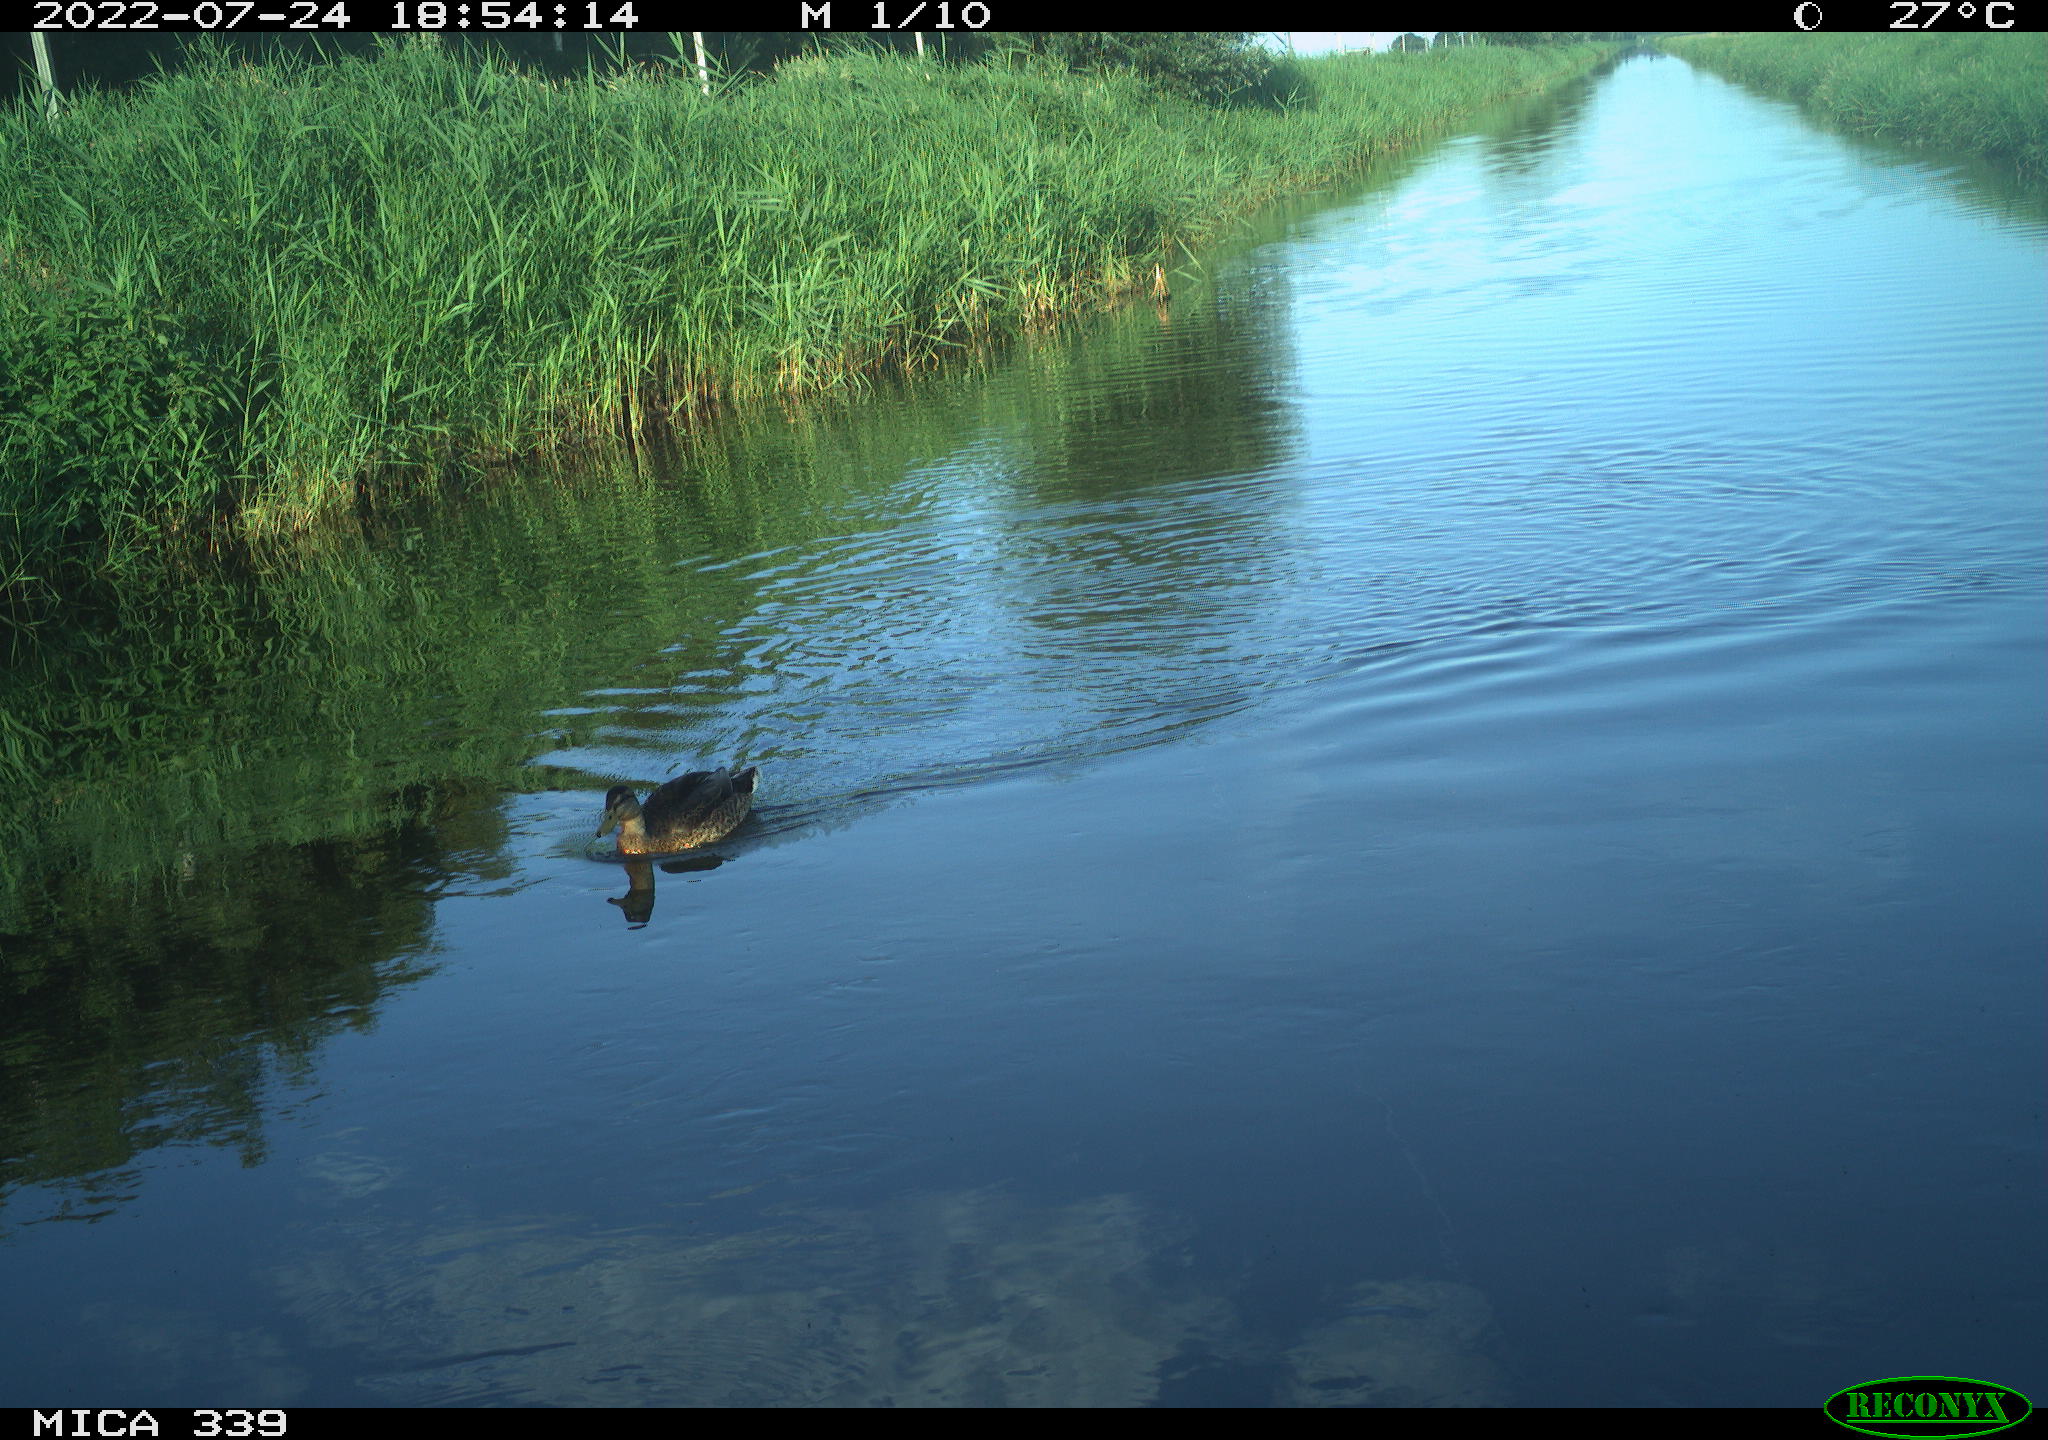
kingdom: Animalia
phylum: Chordata
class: Aves
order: Anseriformes
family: Anatidae
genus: Anas
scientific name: Anas platyrhynchos
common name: Mallard
